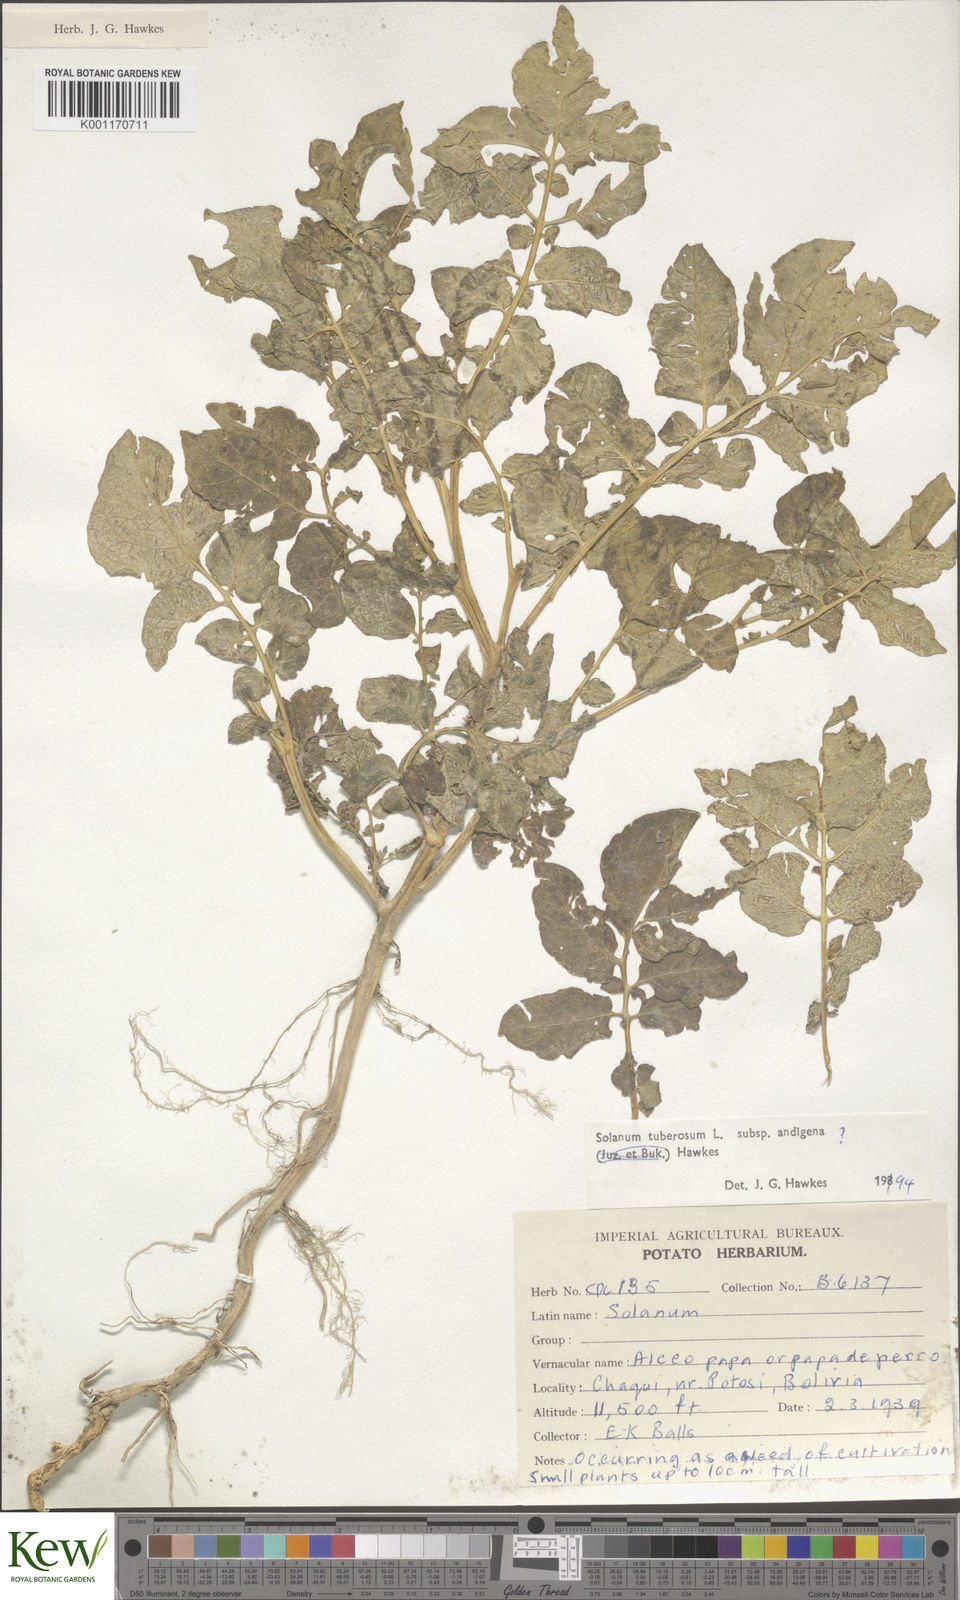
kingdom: Plantae
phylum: Tracheophyta
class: Magnoliopsida
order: Solanales
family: Solanaceae
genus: Solanum
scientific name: Solanum tuberosum
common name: Potato
